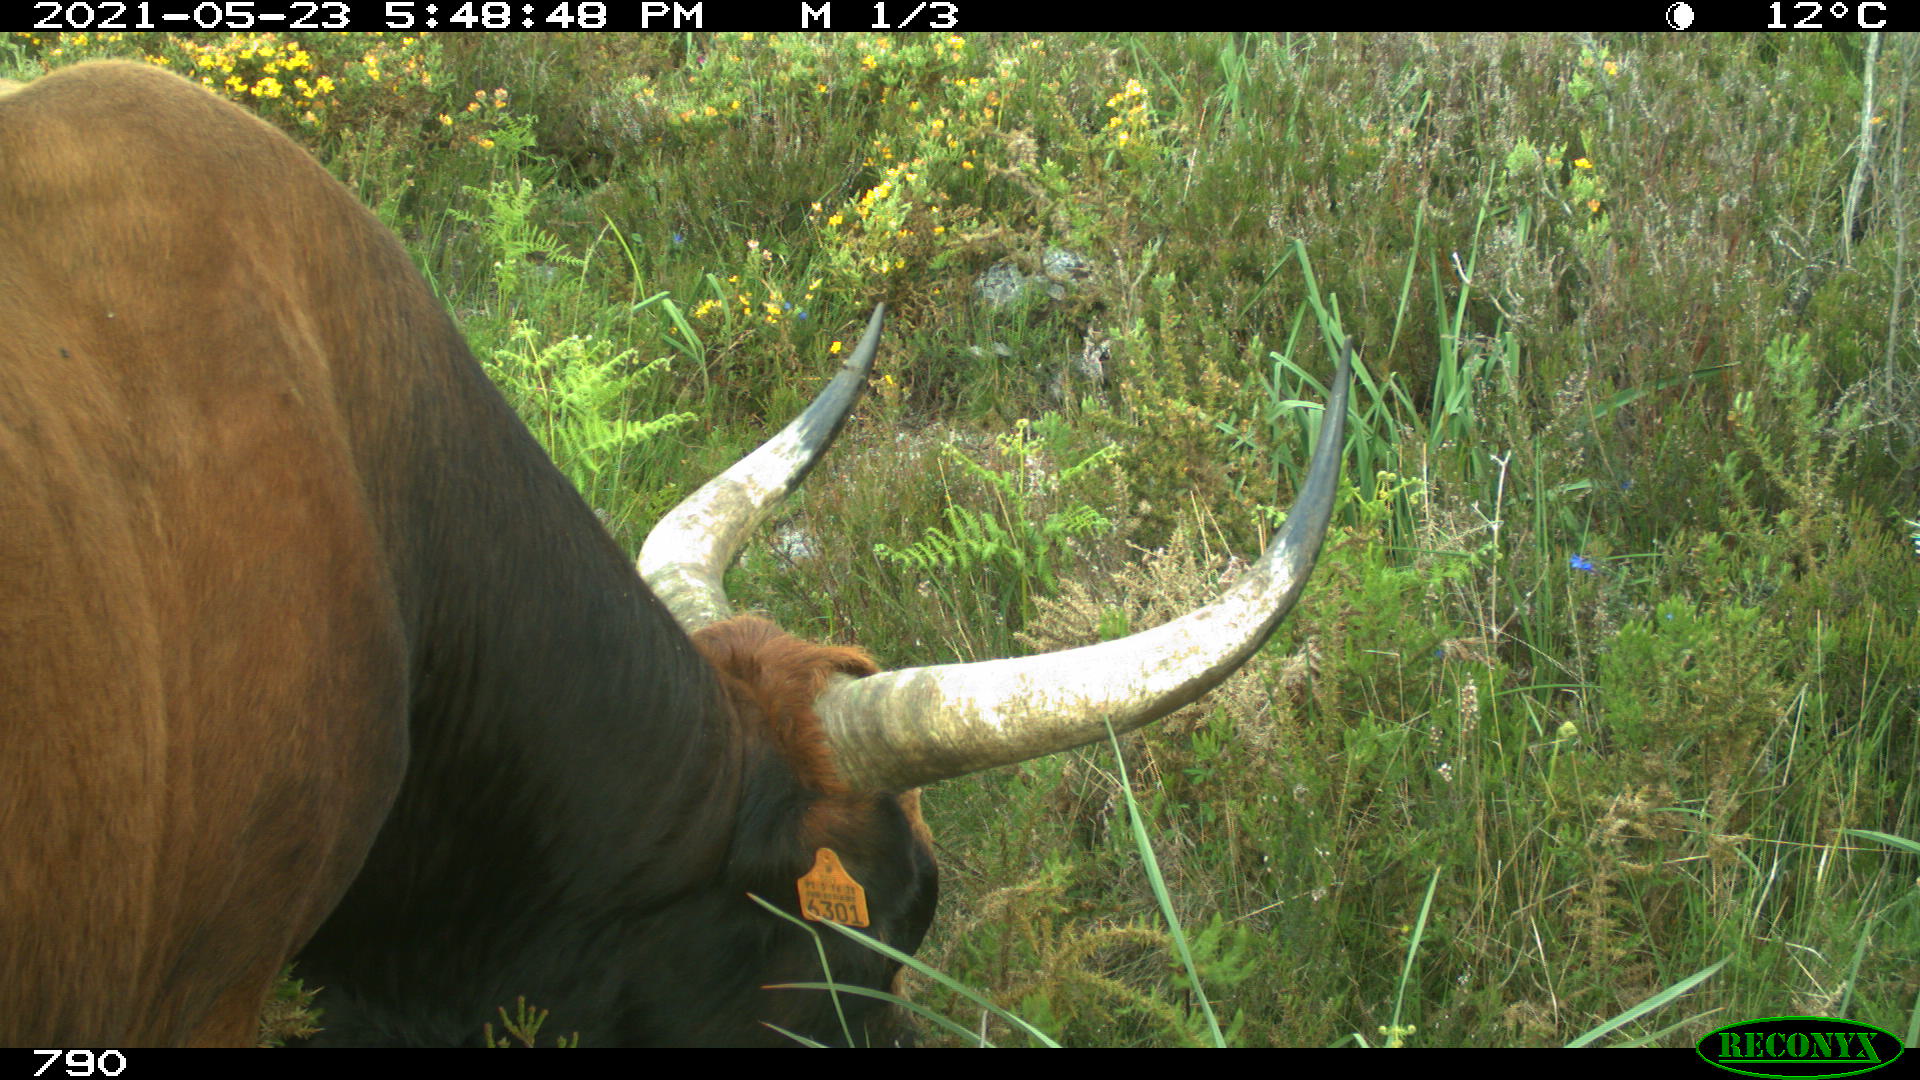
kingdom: Animalia
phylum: Chordata
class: Mammalia
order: Artiodactyla
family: Bovidae
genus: Bos
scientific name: Bos taurus
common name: Domesticated cattle
